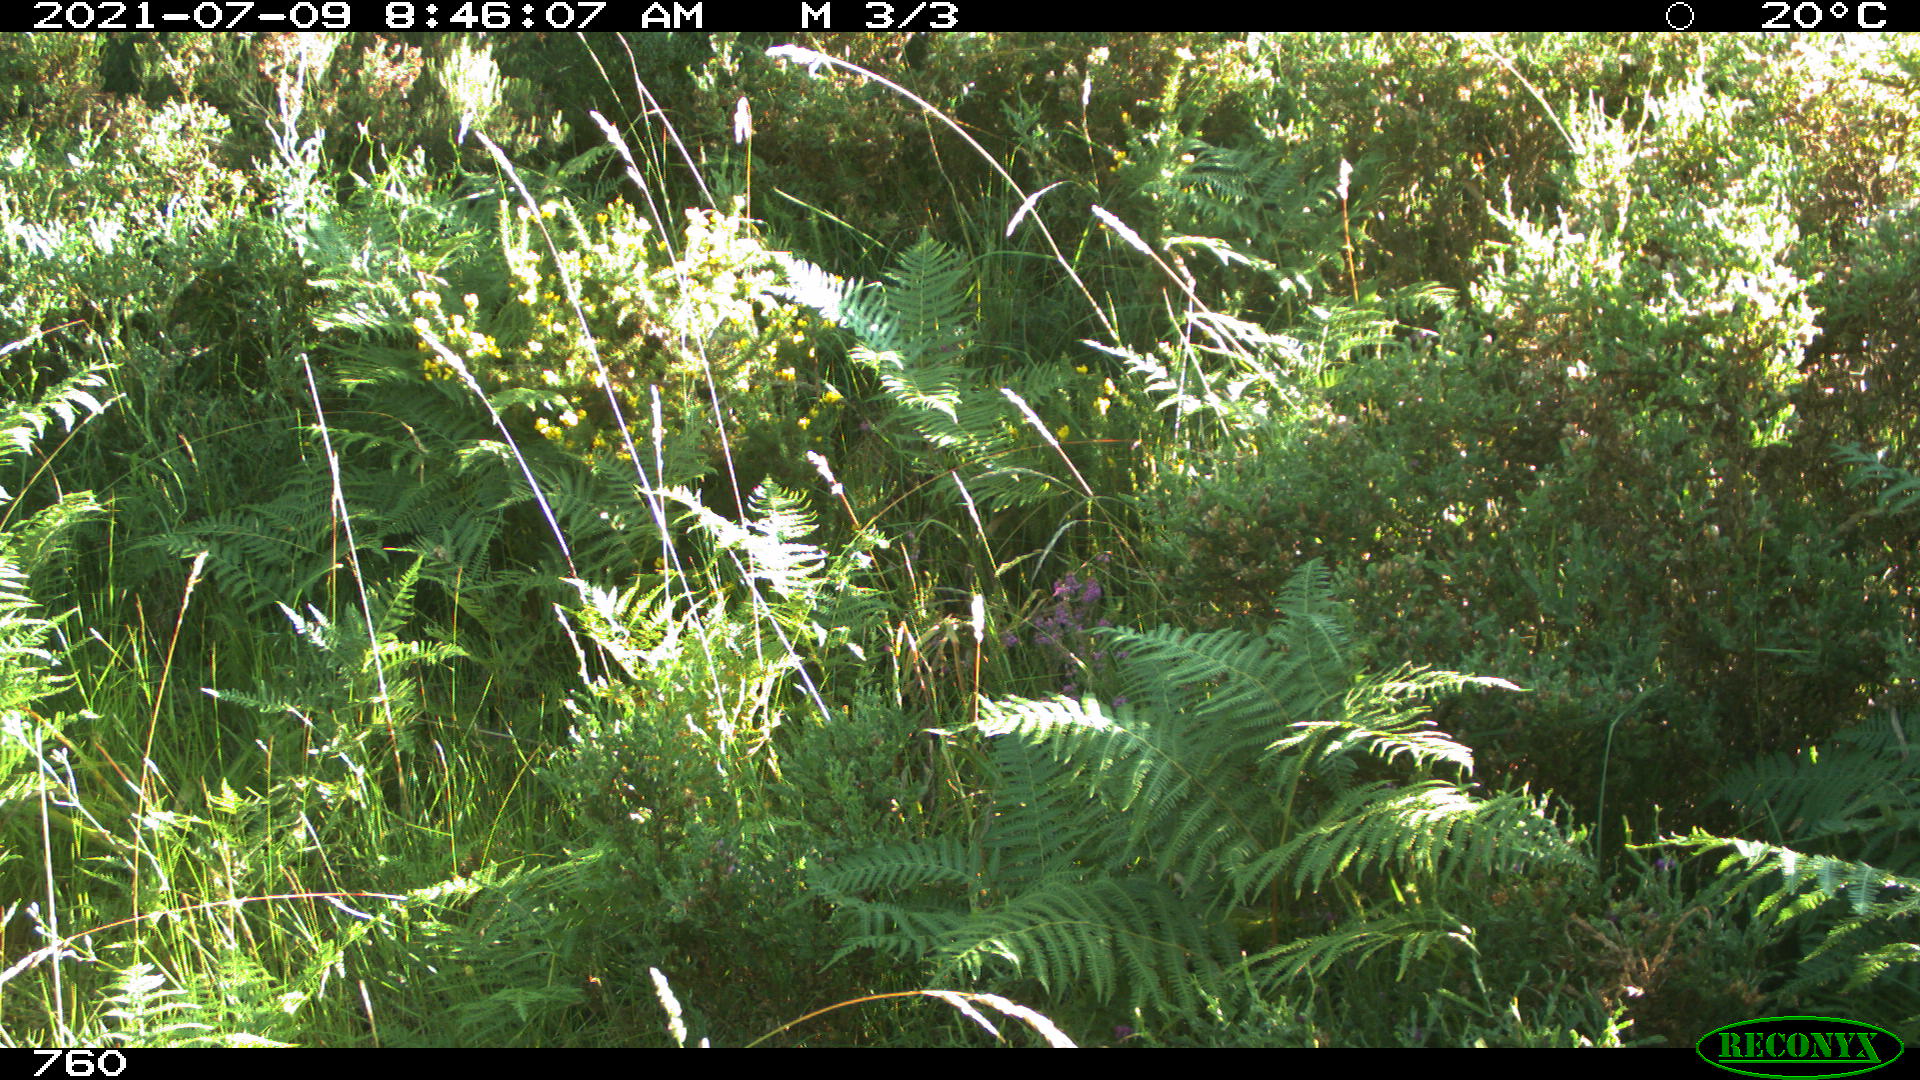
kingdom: Animalia
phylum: Chordata
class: Mammalia
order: Artiodactyla
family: Cervidae
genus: Capreolus
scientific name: Capreolus capreolus
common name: Western roe deer
